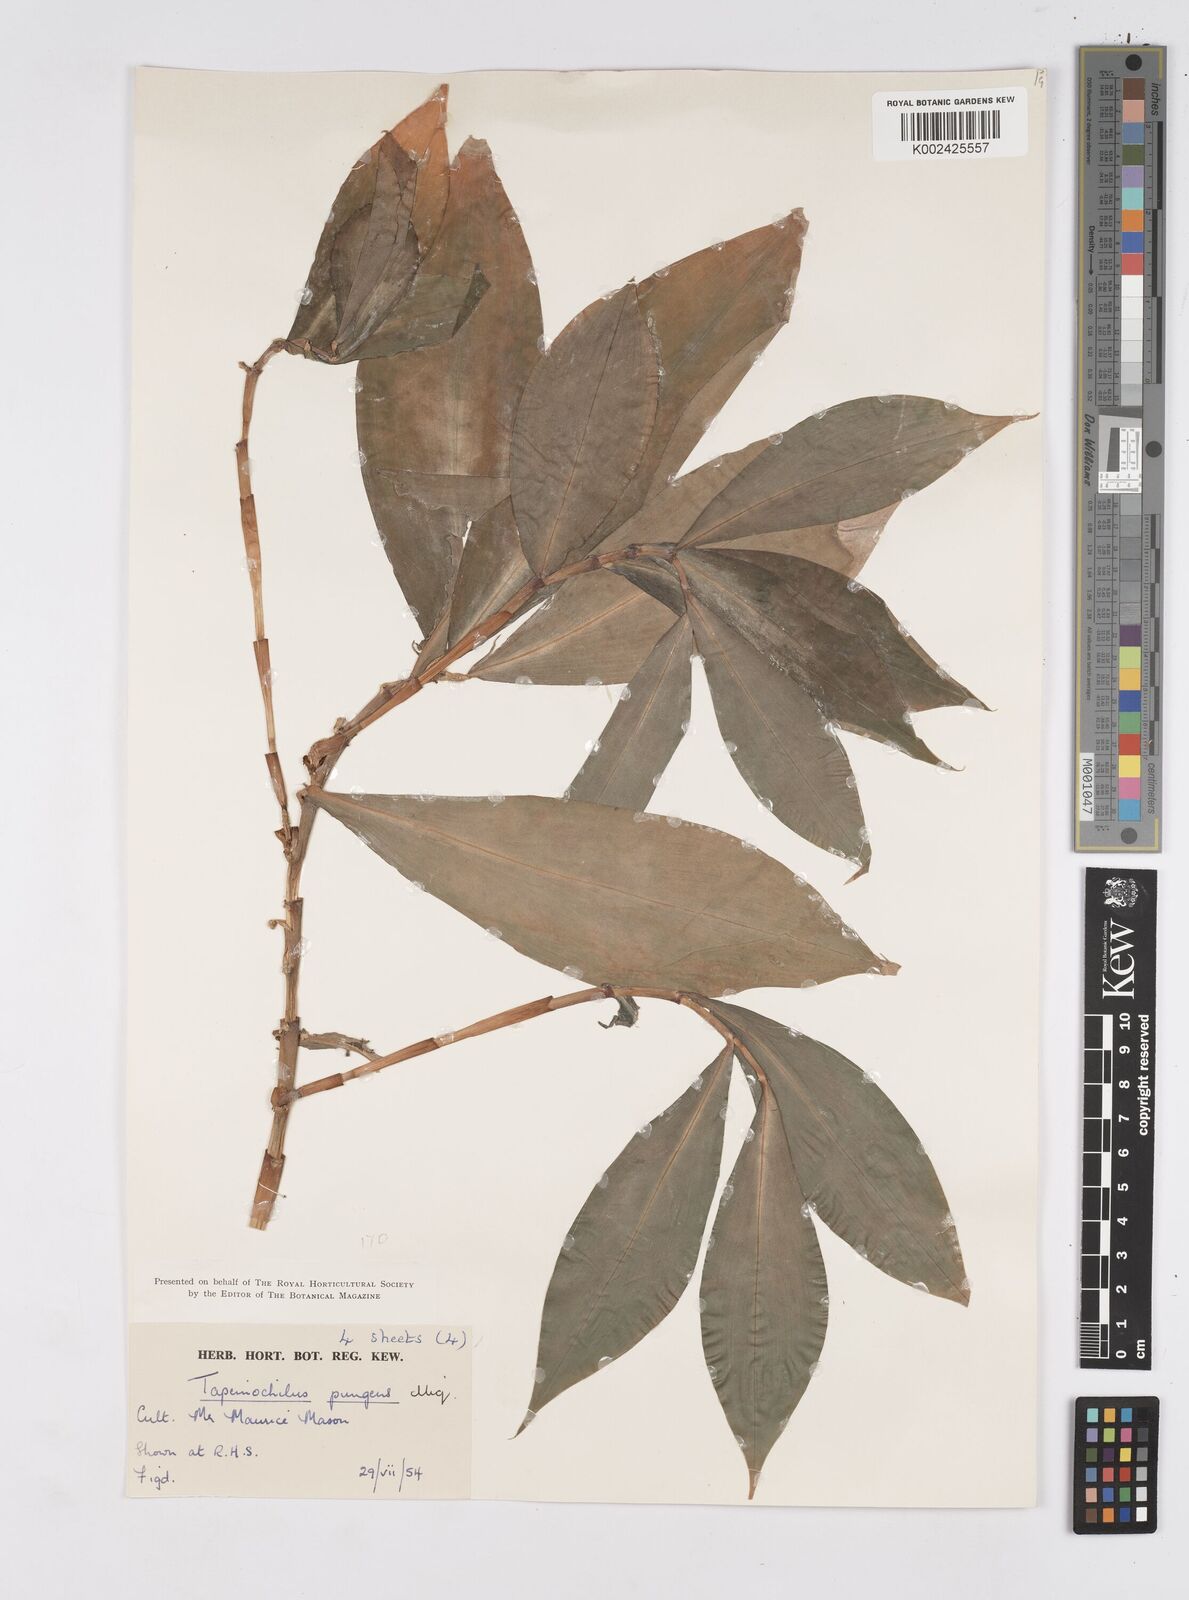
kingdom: Plantae
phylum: Tracheophyta
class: Liliopsida
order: Zingiberales
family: Costaceae
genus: Tapeinochilos
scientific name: Tapeinochilos ananassae
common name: Torch-ginger
